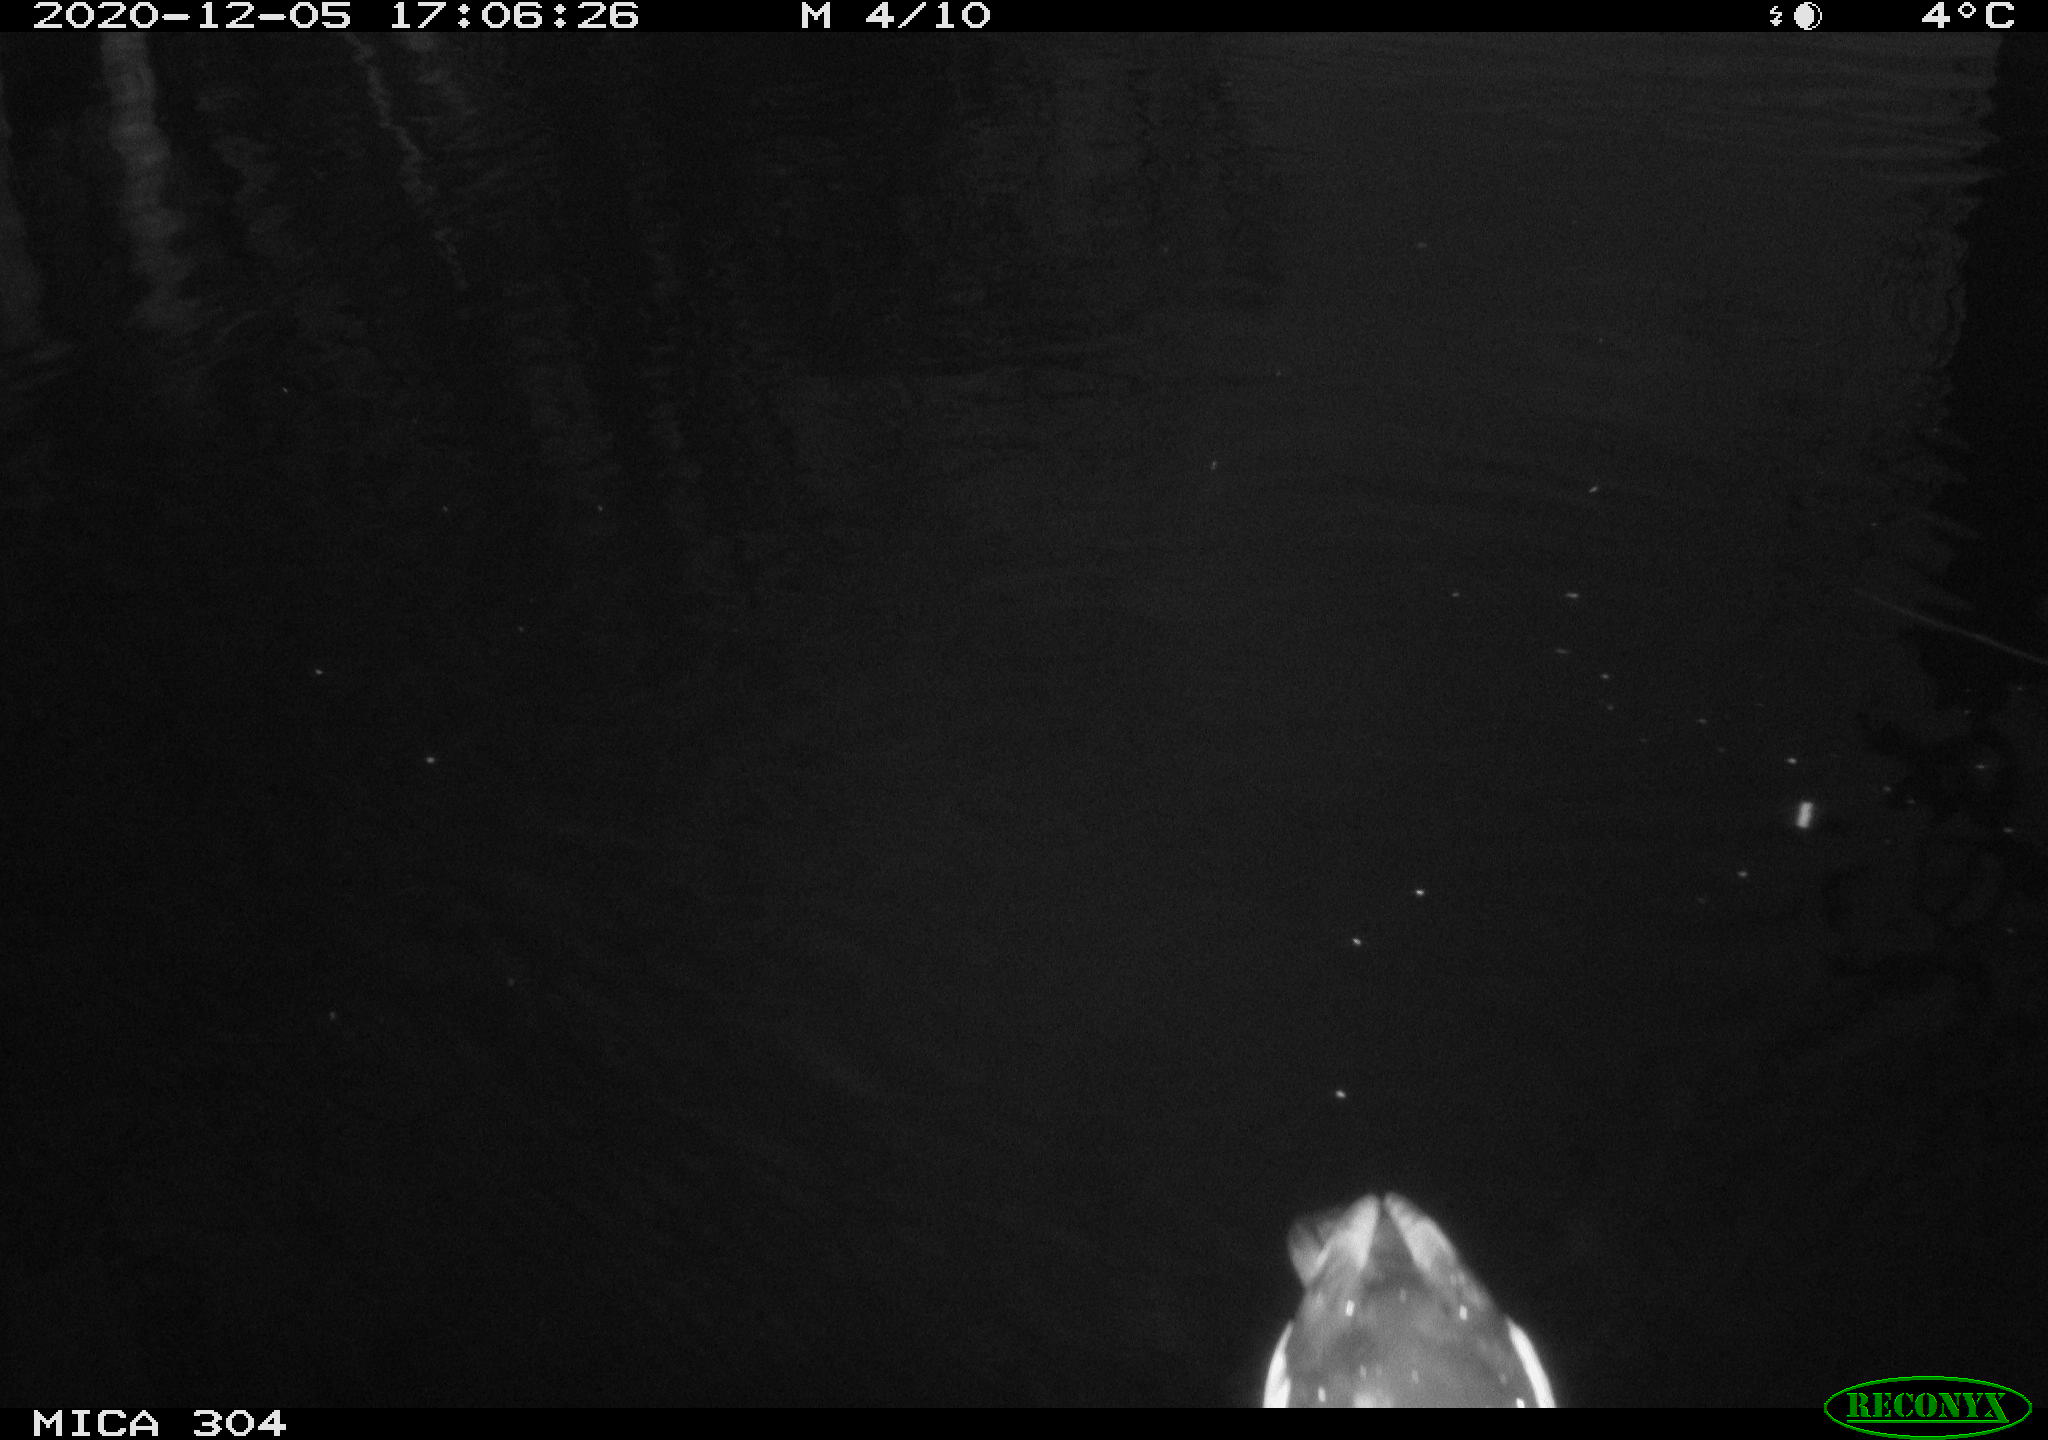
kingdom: Animalia
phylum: Chordata
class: Aves
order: Anseriformes
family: Anatidae
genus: Anas
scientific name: Anas platyrhynchos
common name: Mallard
